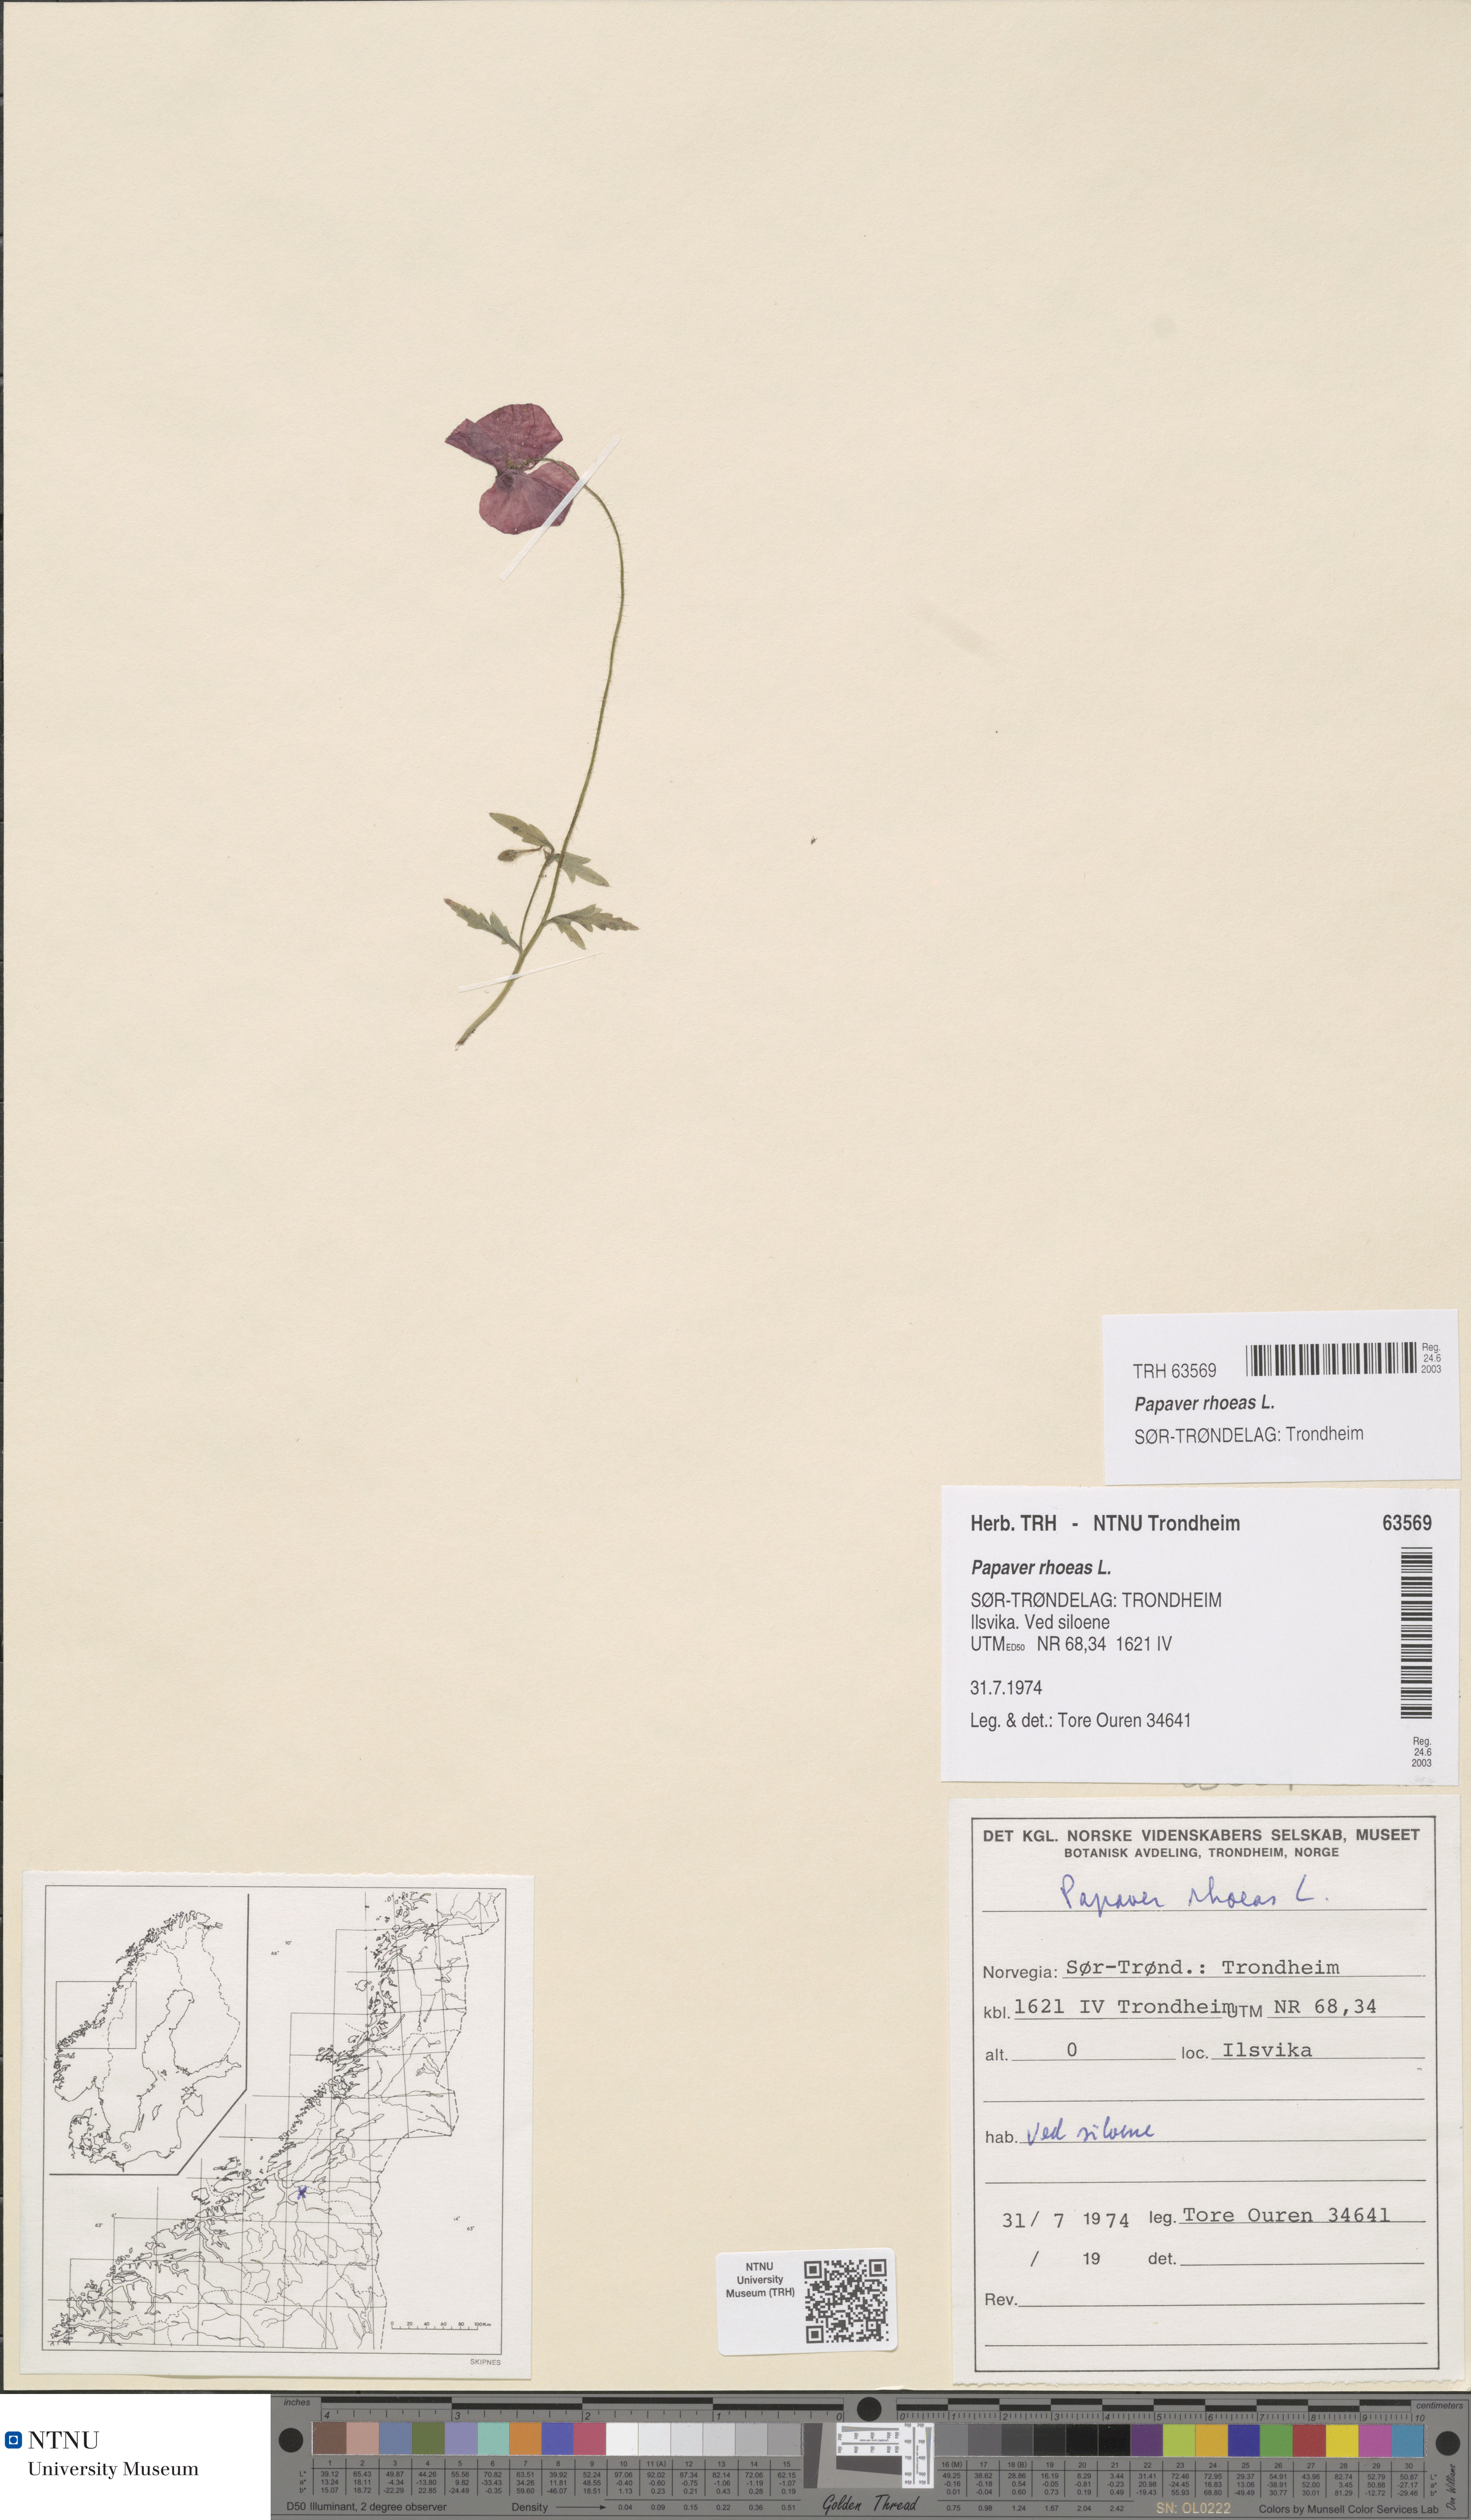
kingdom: Plantae
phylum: Tracheophyta
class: Magnoliopsida
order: Ranunculales
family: Papaveraceae
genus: Papaver
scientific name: Papaver rhoeas
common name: Corn poppy
